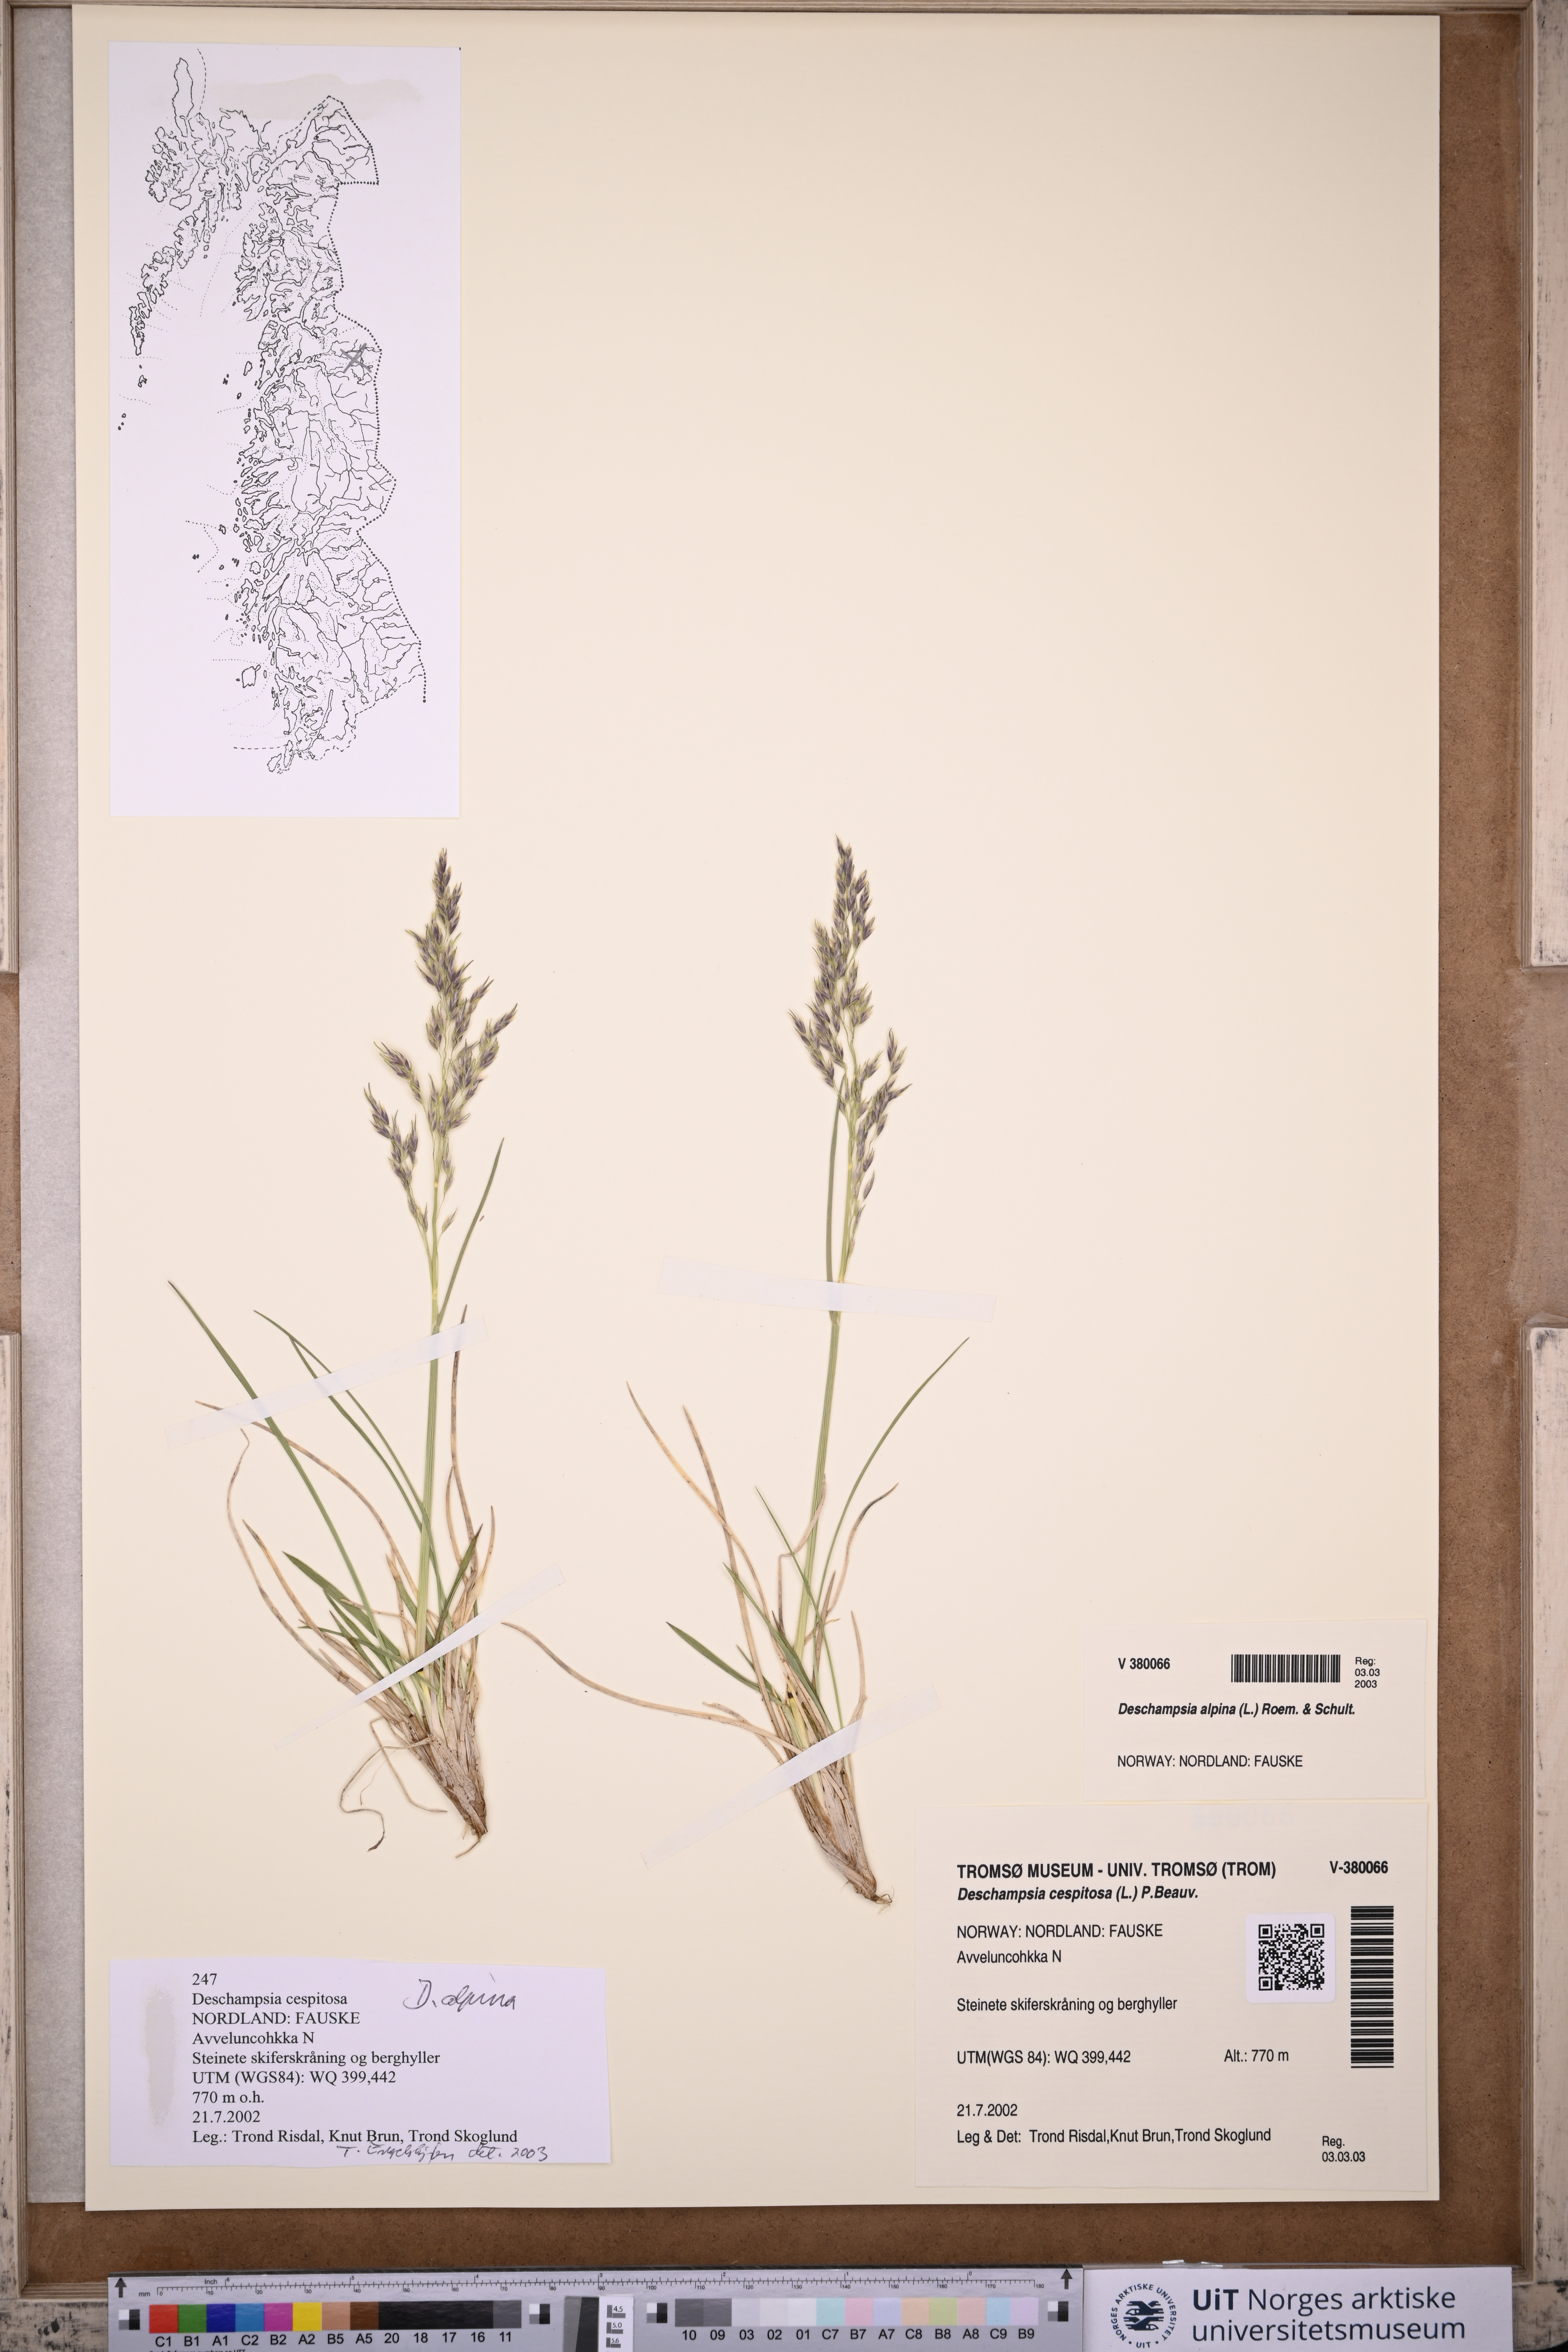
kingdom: Plantae
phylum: Tracheophyta
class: Liliopsida
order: Poales
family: Poaceae
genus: Deschampsia
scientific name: Deschampsia cespitosa
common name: Tufted hair-grass
